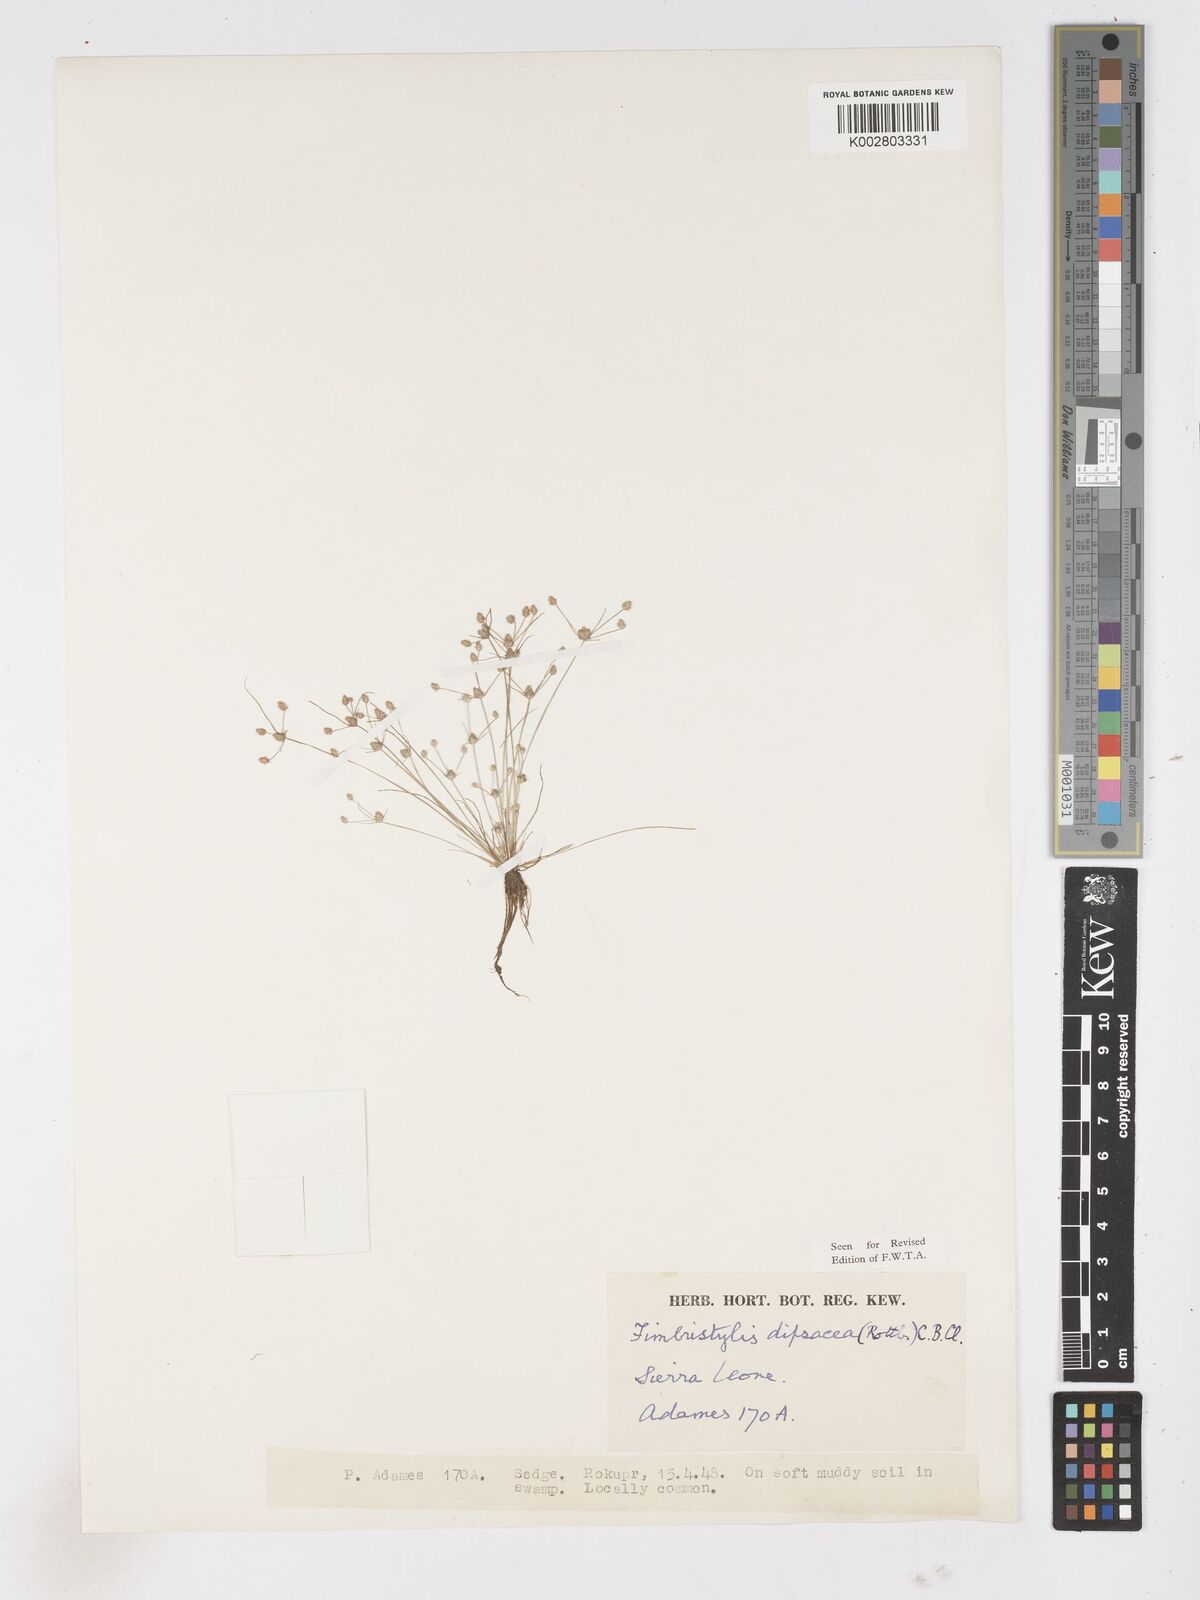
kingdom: Plantae
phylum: Tracheophyta
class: Liliopsida
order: Poales
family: Cyperaceae
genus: Fimbristylis
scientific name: Fimbristylis dipsacea
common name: Harper's fimbristylis
